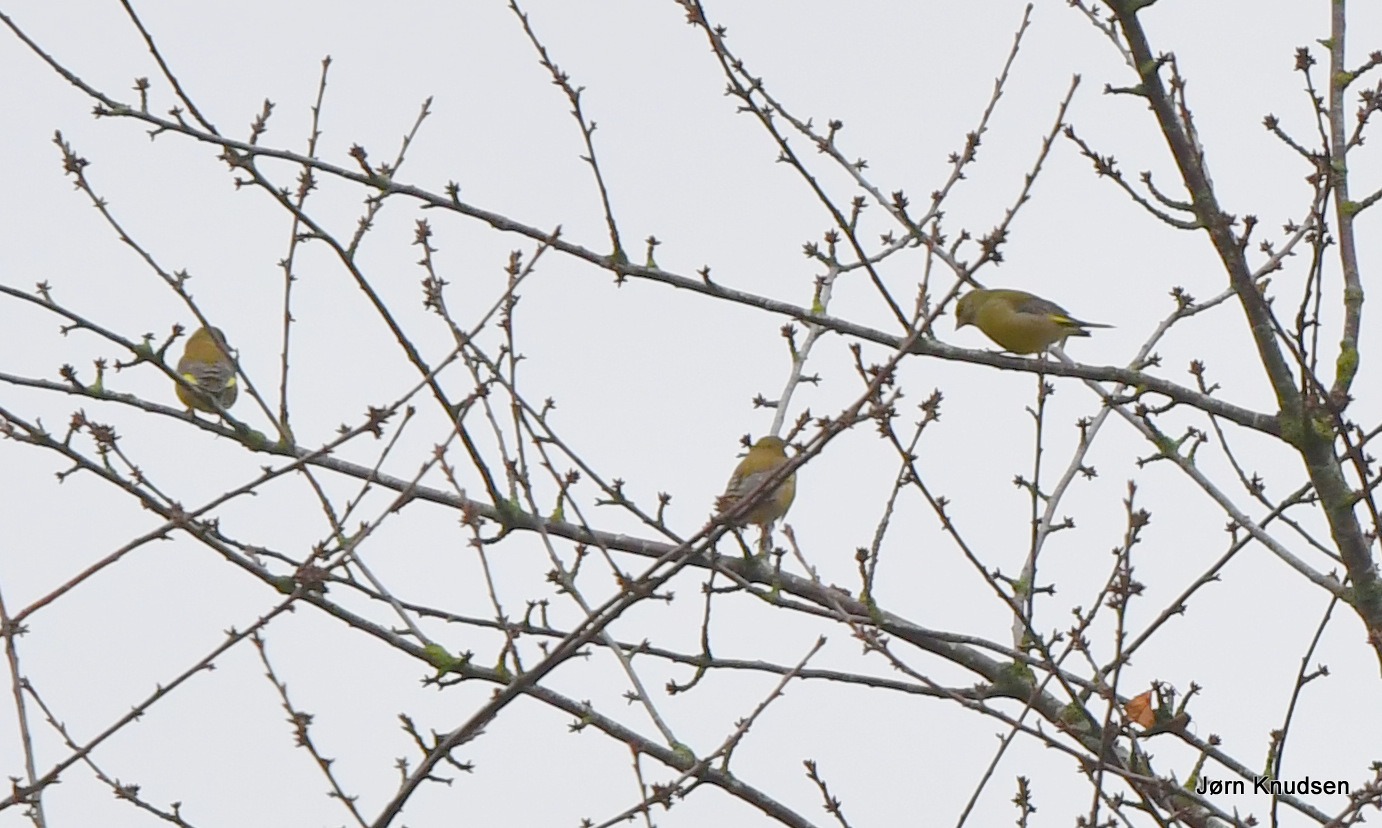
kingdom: Plantae
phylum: Tracheophyta
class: Liliopsida
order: Poales
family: Poaceae
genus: Chloris
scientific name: Chloris chloris
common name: Grønirisk
